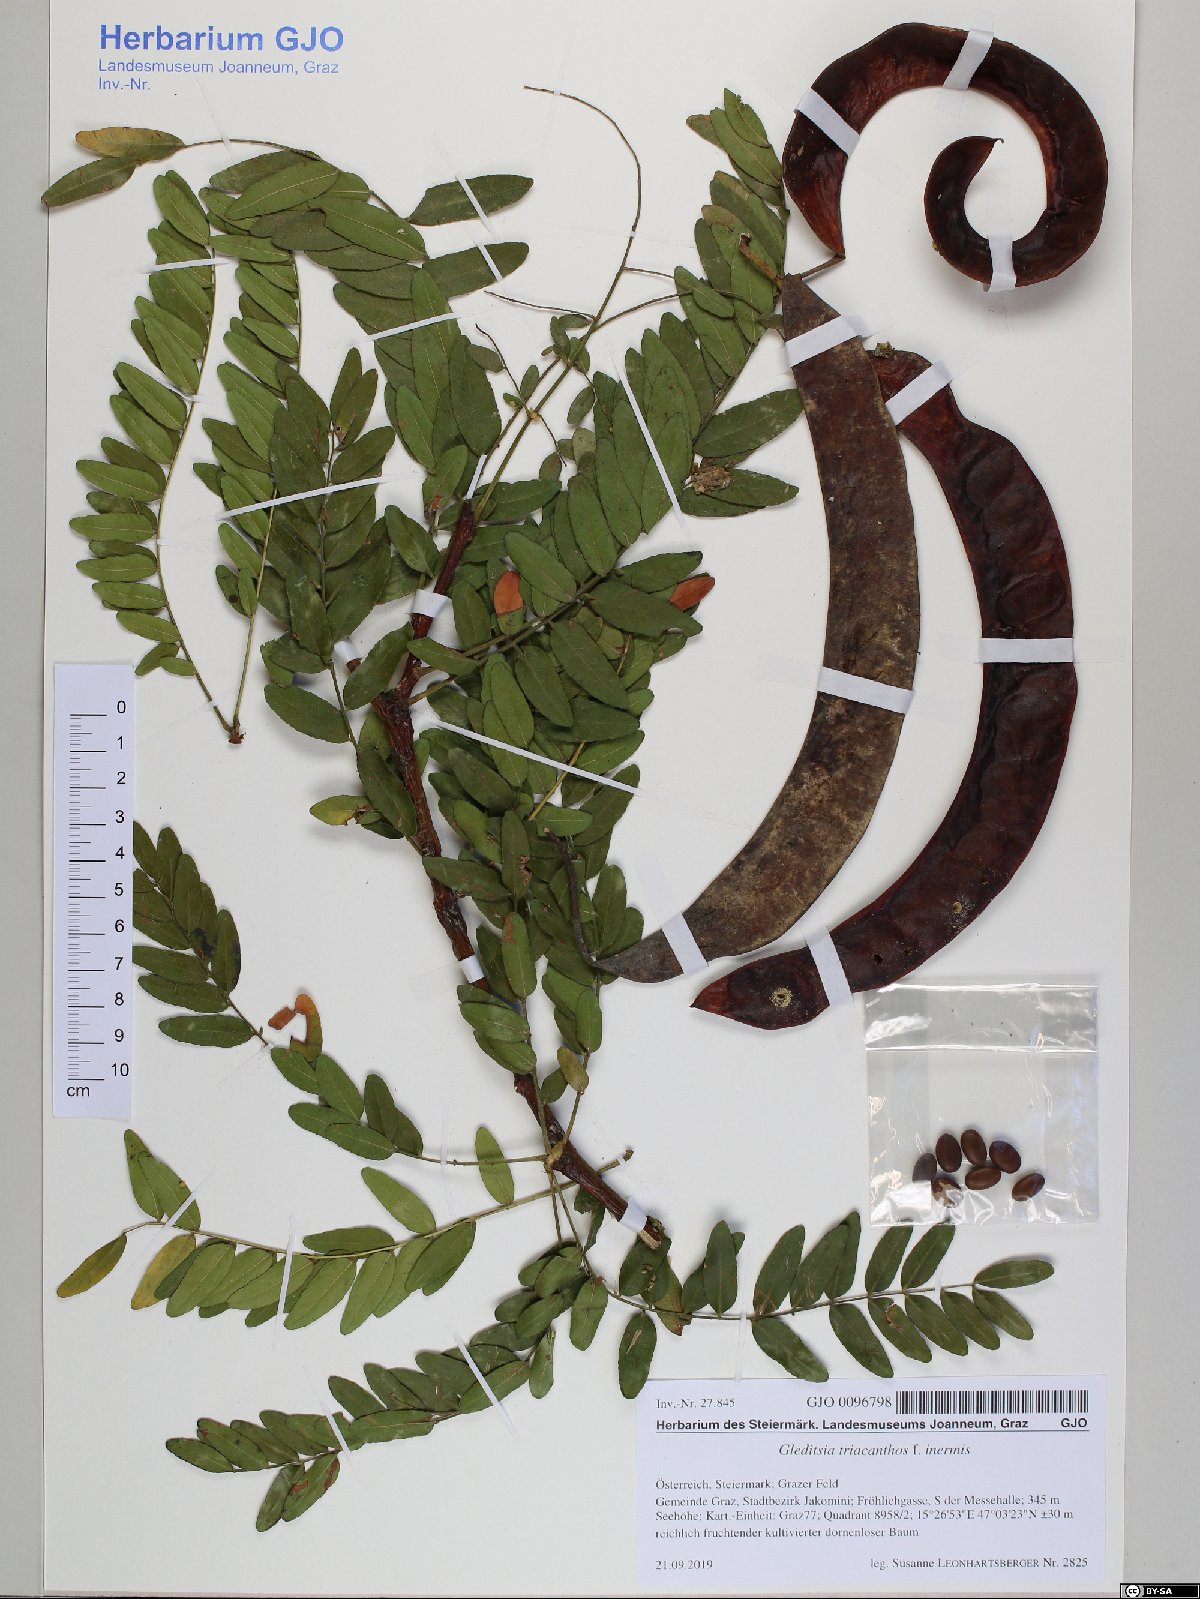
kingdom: Plantae
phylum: Tracheophyta
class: Magnoliopsida
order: Fabales
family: Fabaceae
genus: Gleditsia
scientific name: Gleditsia triacanthos
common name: Common honeylocust
